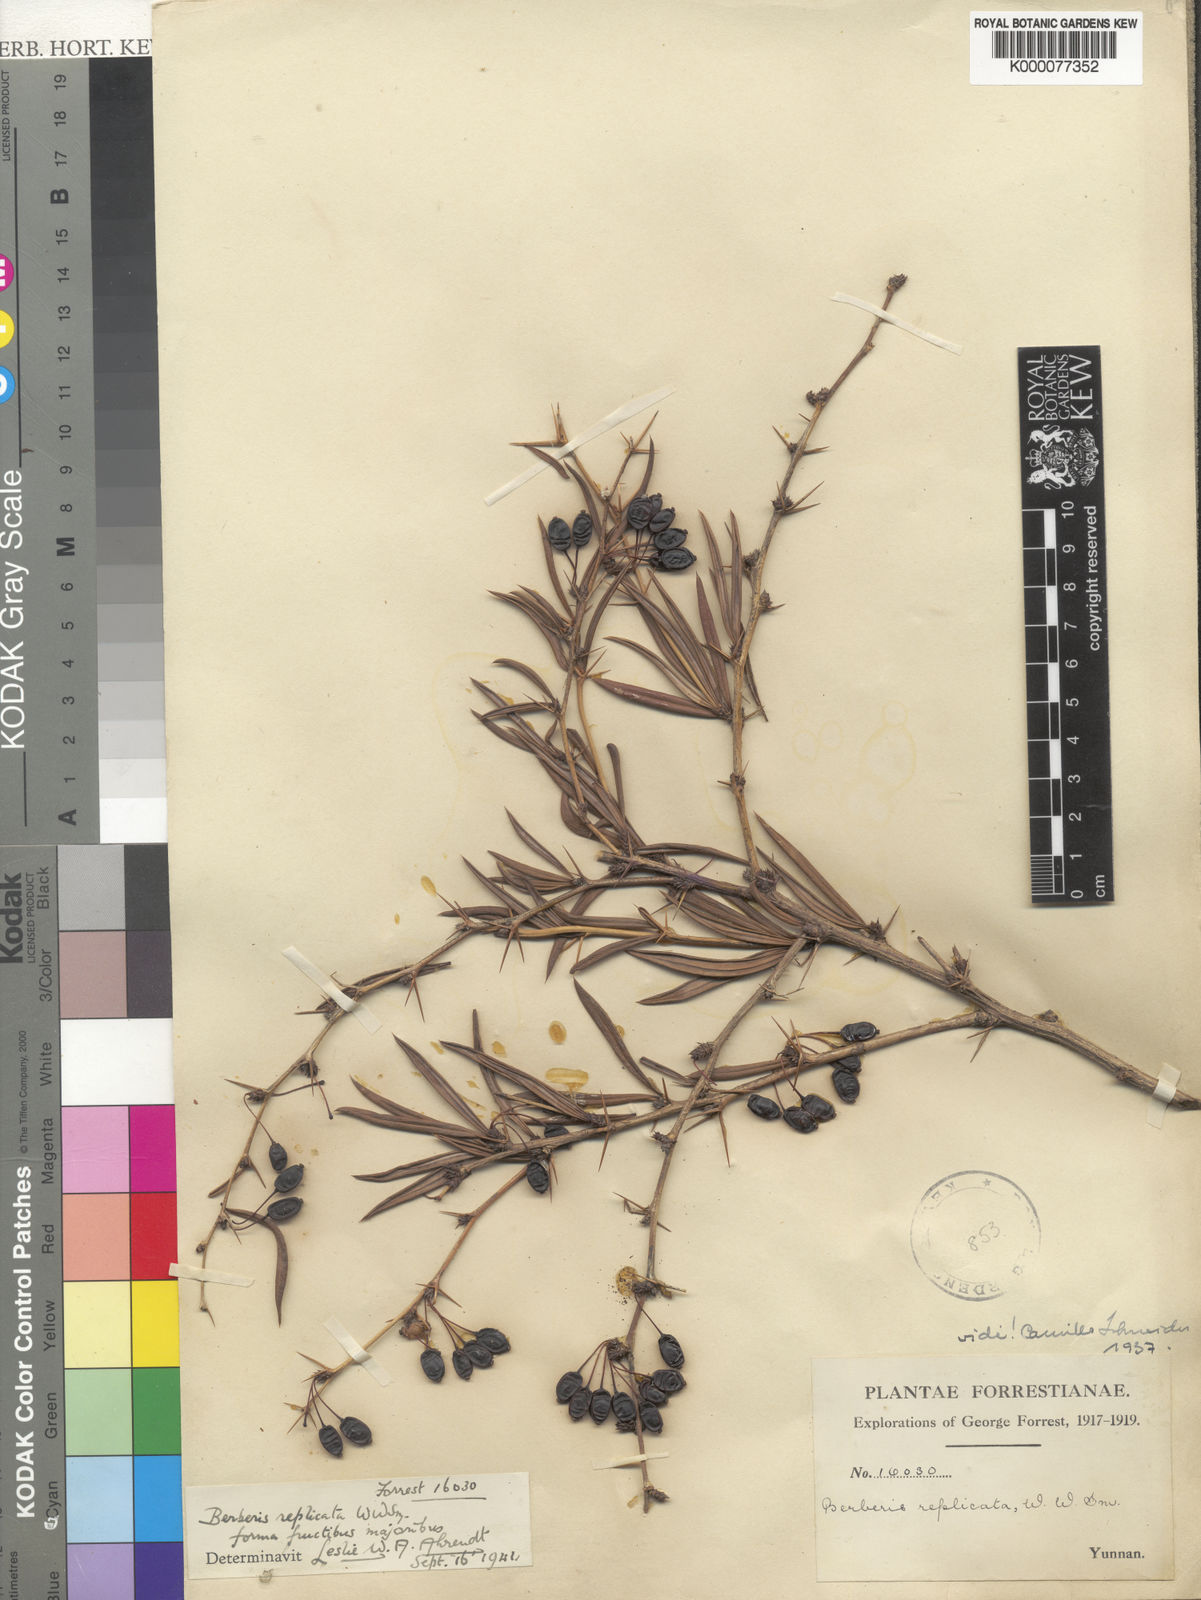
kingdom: Plantae
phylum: Tracheophyta
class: Magnoliopsida
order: Ranunculales
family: Berberidaceae
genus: Berberis
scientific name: Berberis replicata
